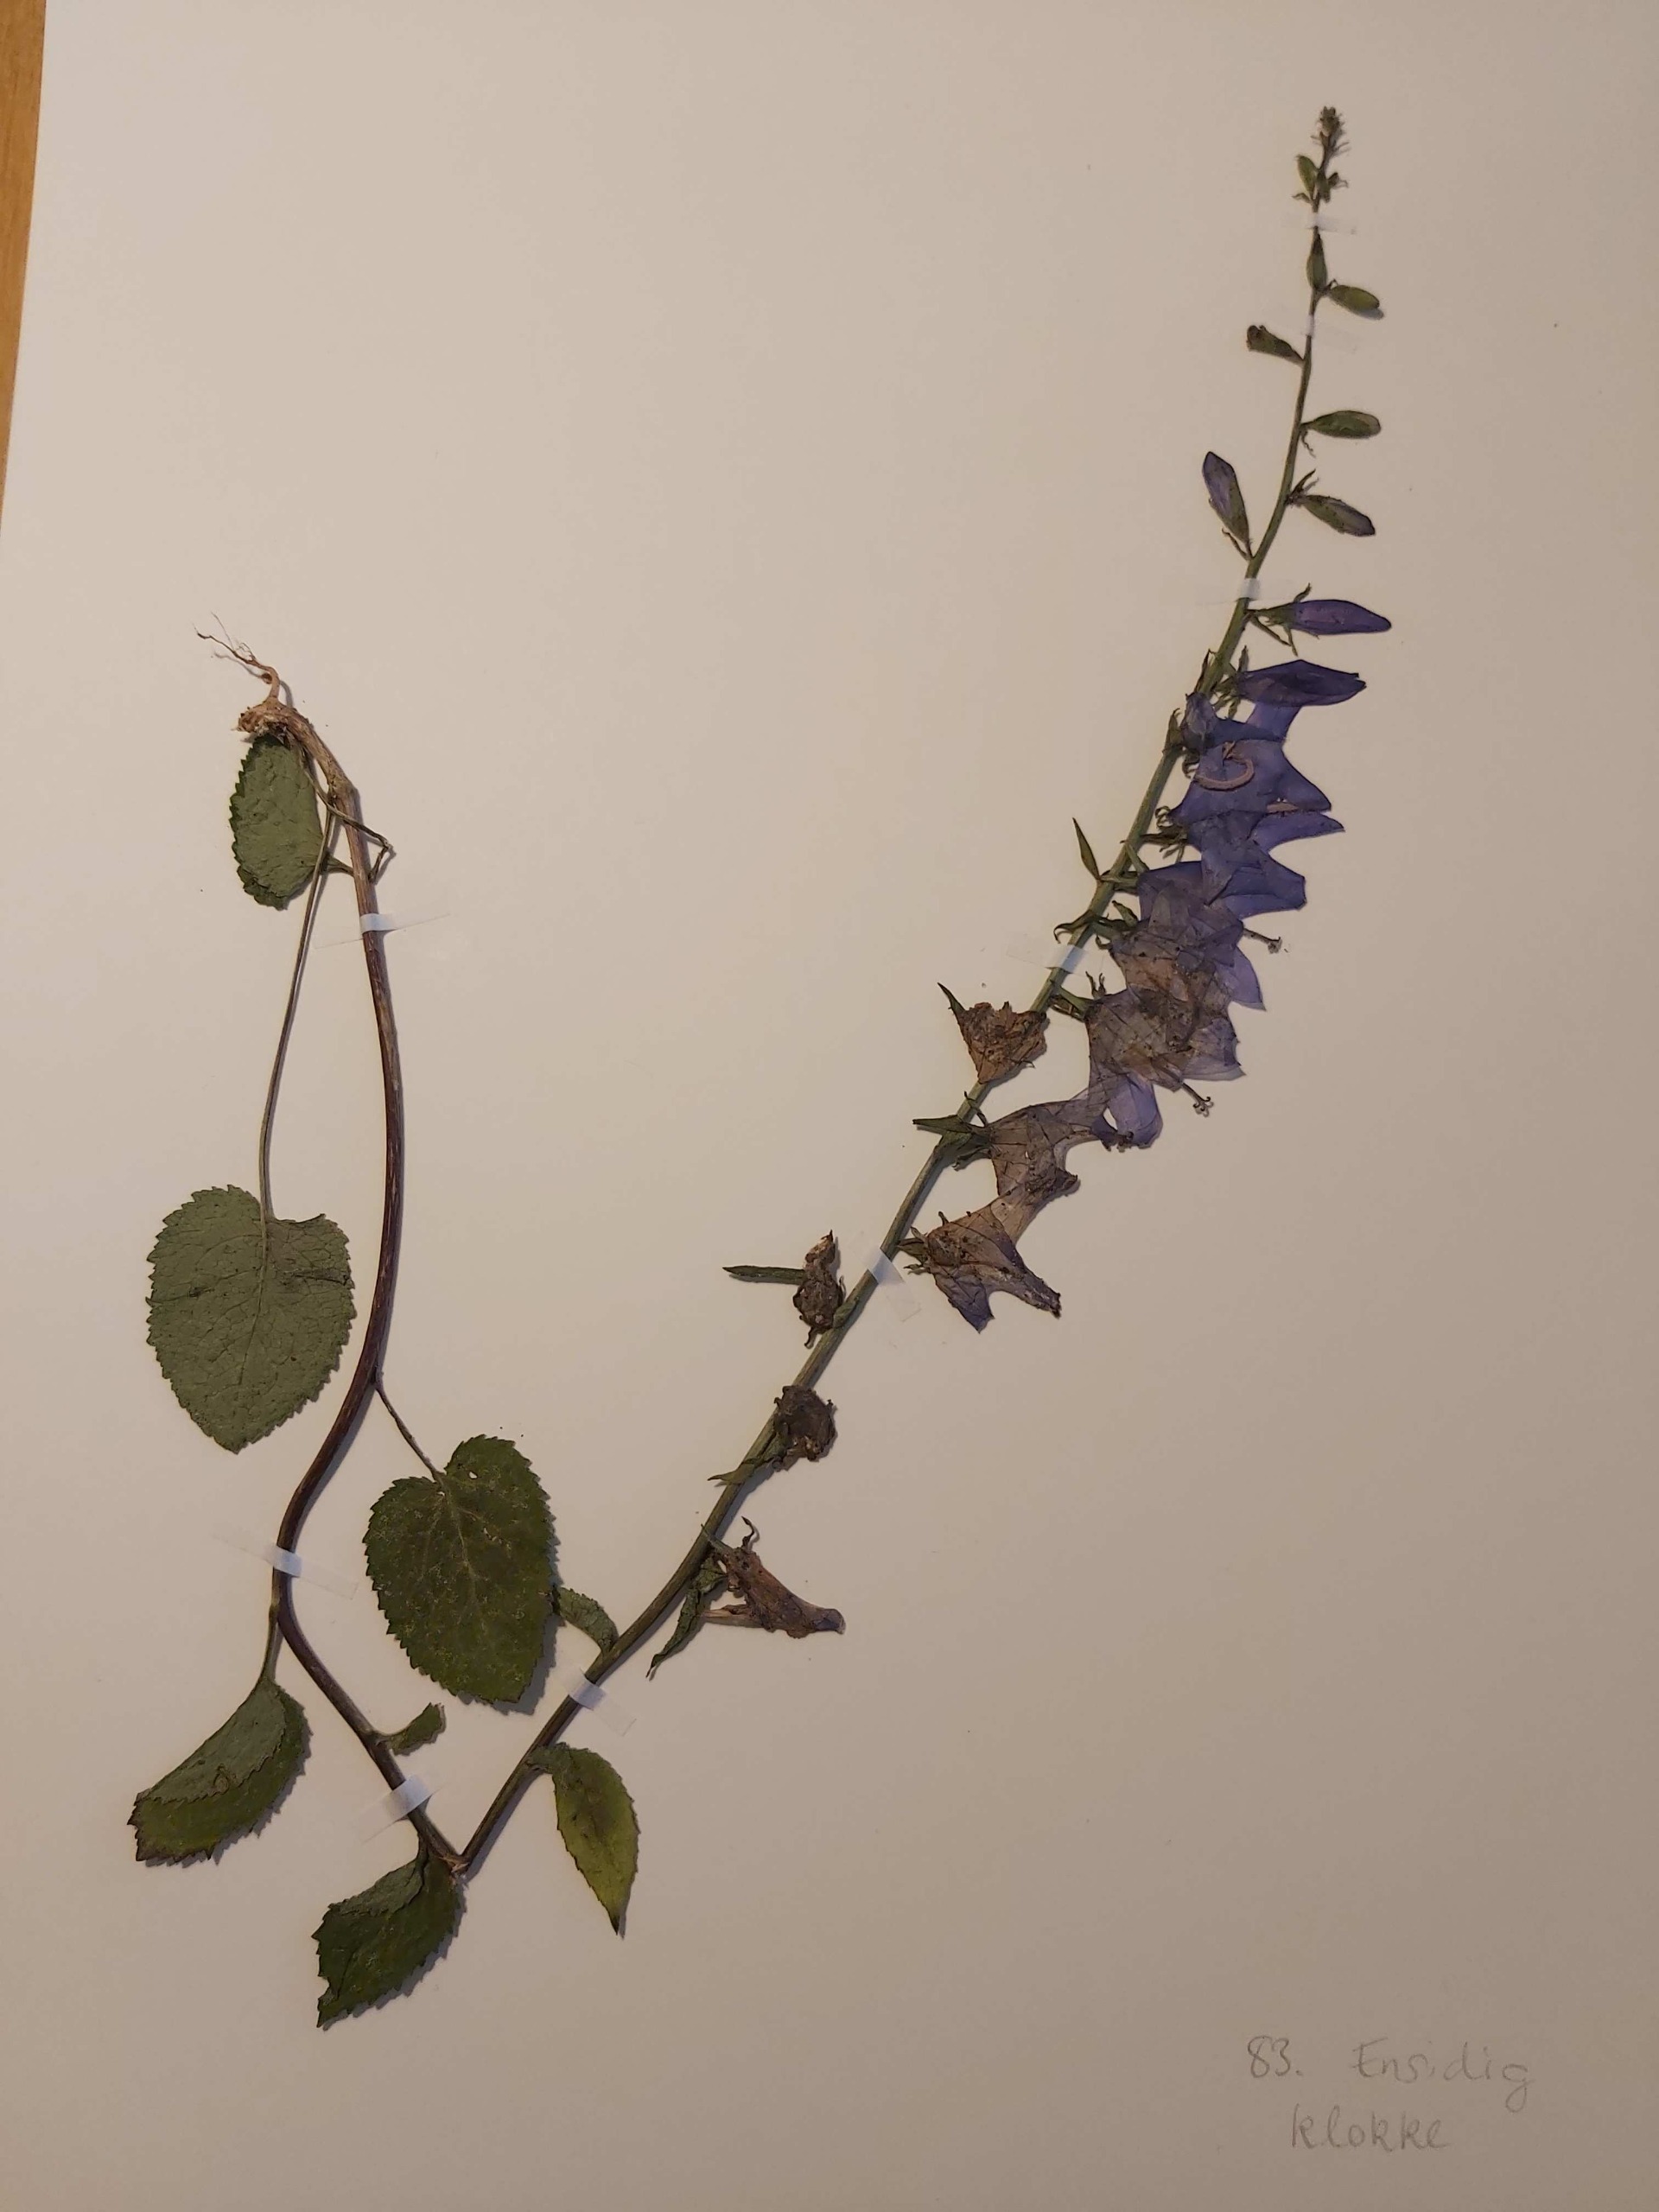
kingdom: Plantae
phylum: Tracheophyta
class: Magnoliopsida
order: Asterales
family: Campanulaceae
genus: Campanula
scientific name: Campanula rapunculoides
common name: Ensidig klokke
